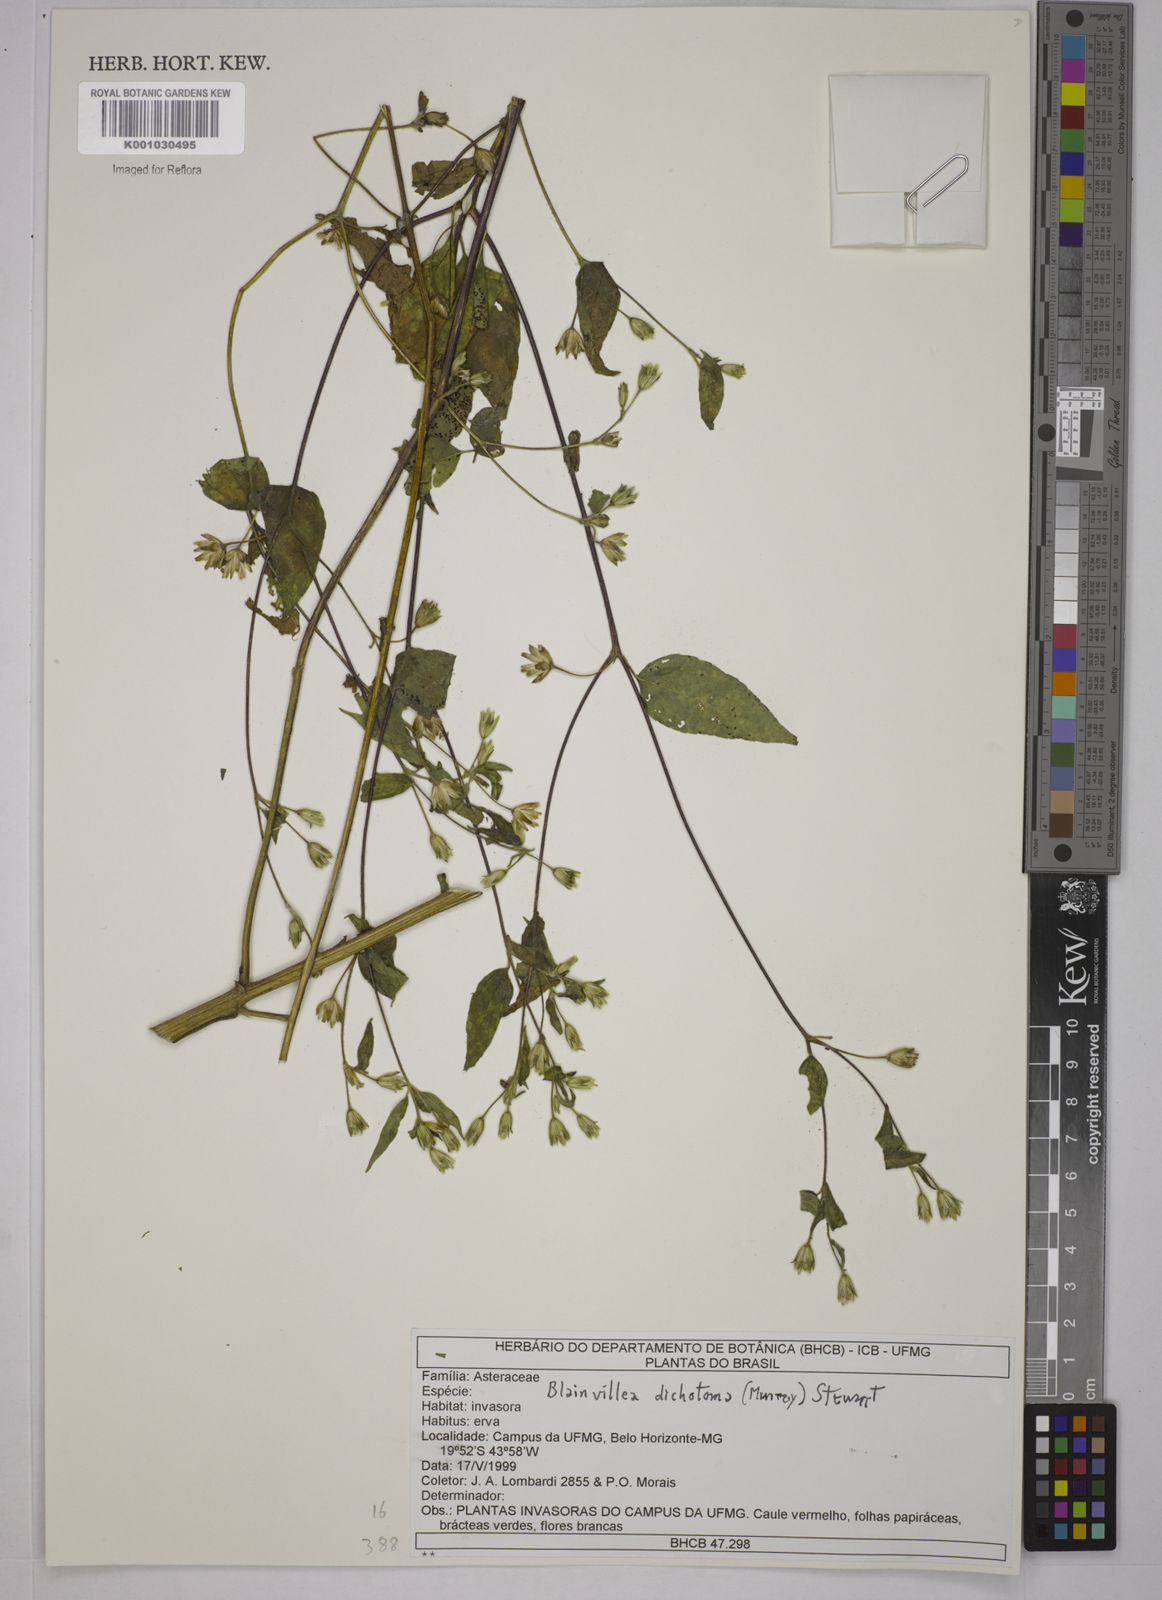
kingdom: Plantae
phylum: Tracheophyta
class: Magnoliopsida
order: Asterales
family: Asteraceae
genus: Blainvillea
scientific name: Blainvillea dichotoma
